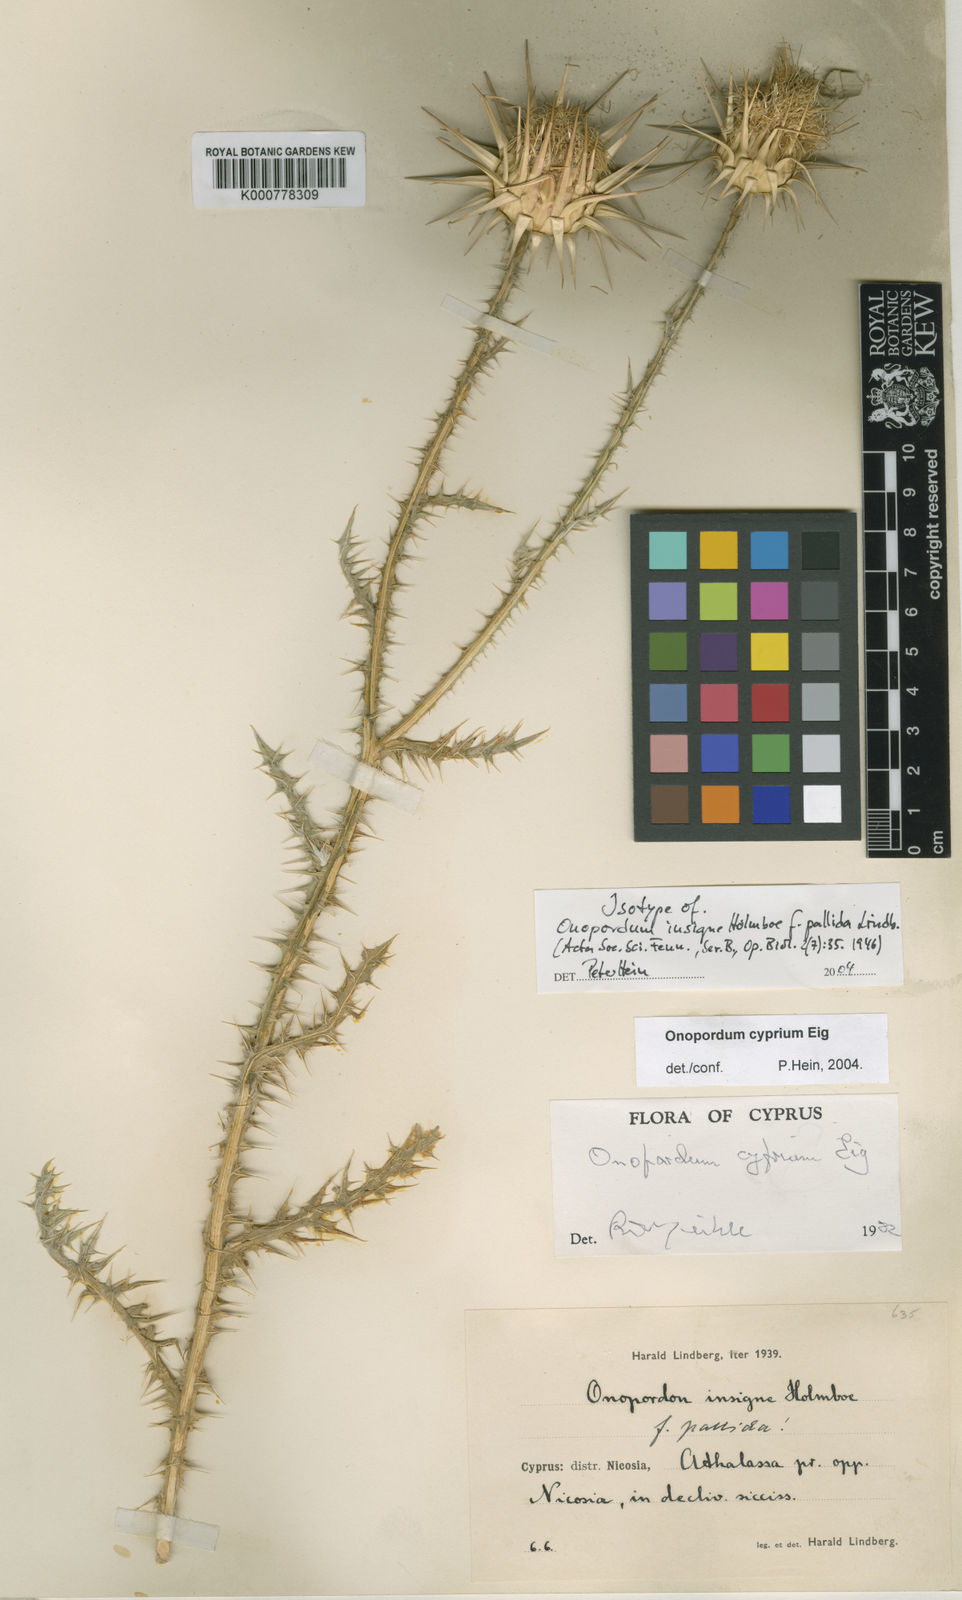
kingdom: Plantae
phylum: Tracheophyta
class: Magnoliopsida
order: Asterales
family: Asteraceae
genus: Onopordum
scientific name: Onopordum cyprium
